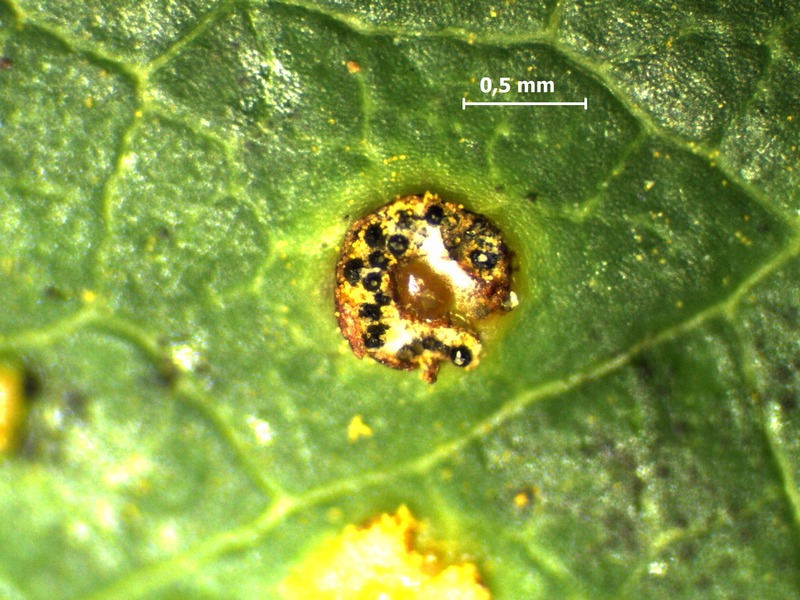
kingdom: Fungi
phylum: Ascomycota
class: Dothideomycetes
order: Pleosporales
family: Phaeosphaeriaceae
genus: Eudarluca
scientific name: Eudarluca caricis
